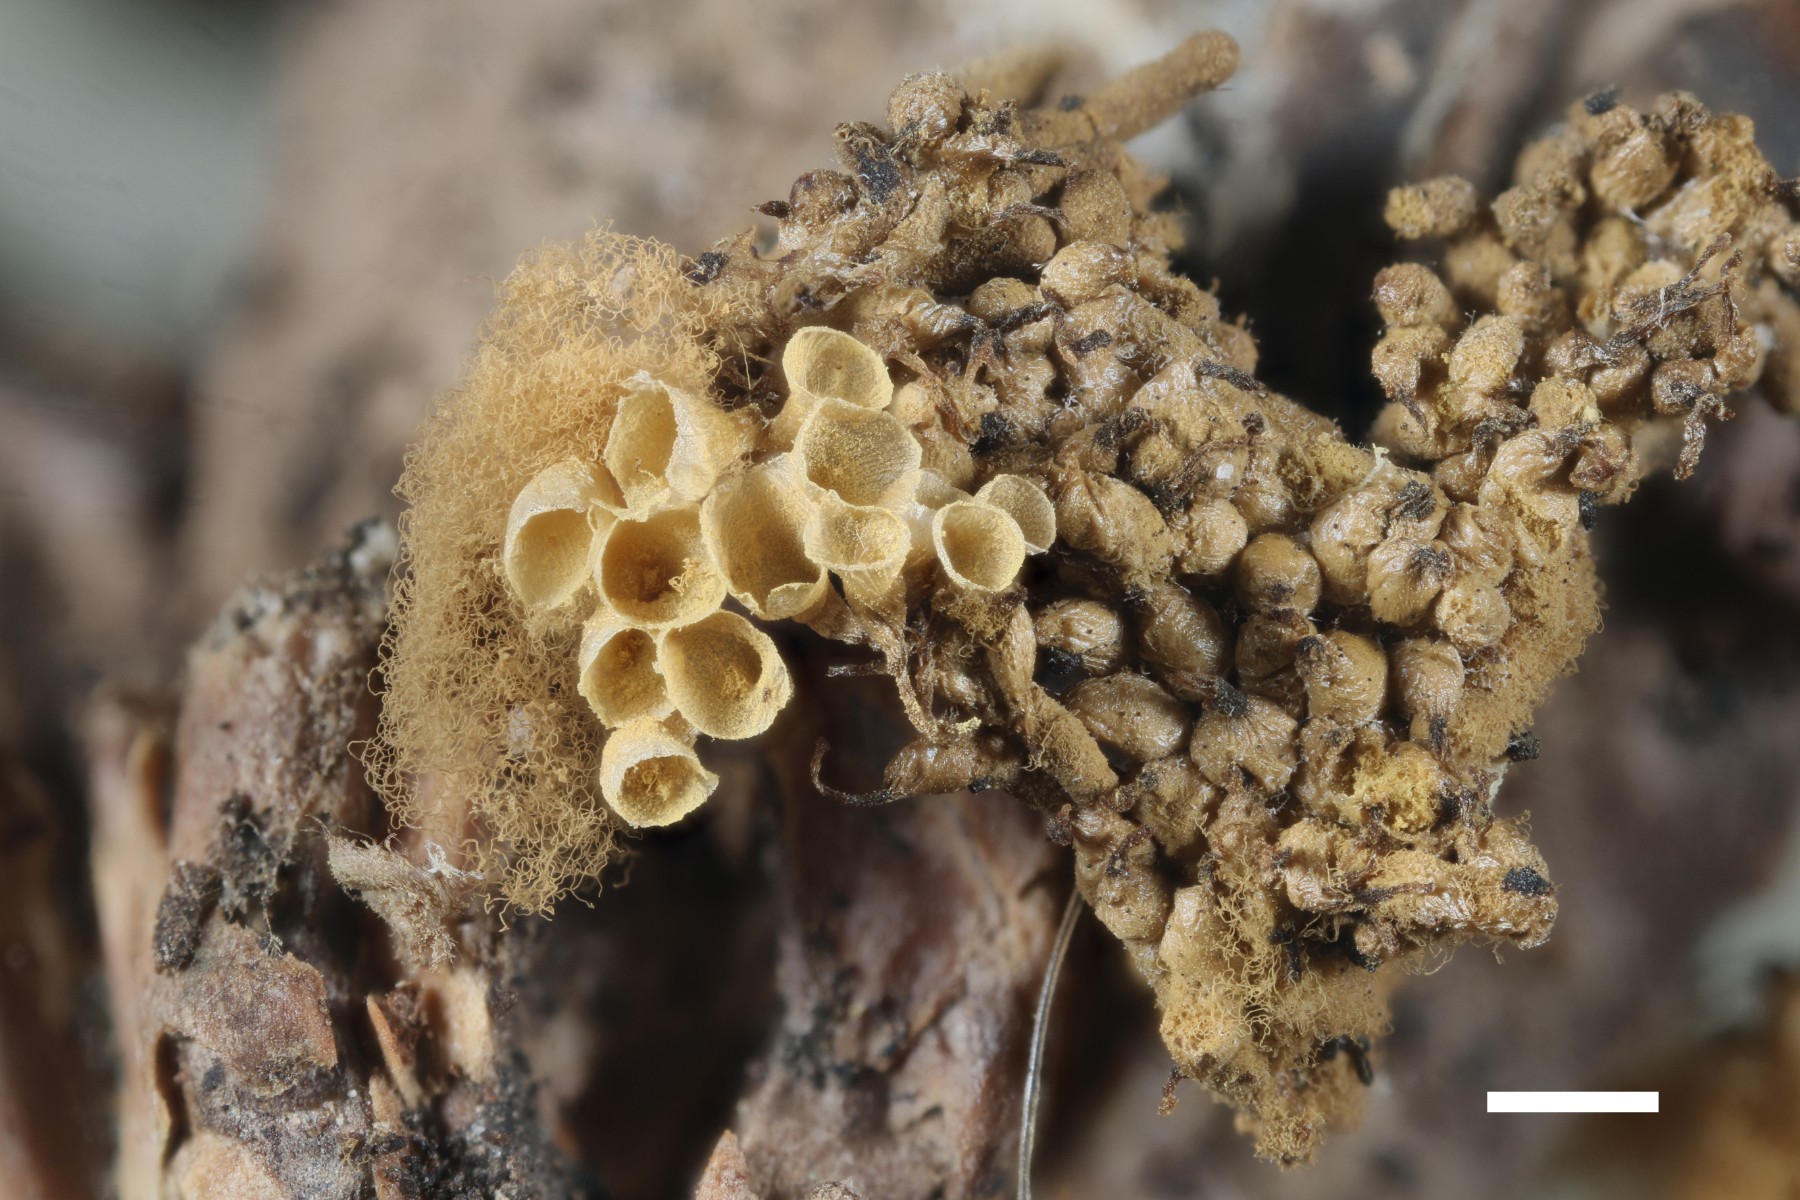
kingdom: Protozoa
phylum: Mycetozoa
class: Myxomycetes
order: Trichiales
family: Arcyriaceae
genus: Arcyria
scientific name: Arcyria obvelata
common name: okkergul skålsvøb
